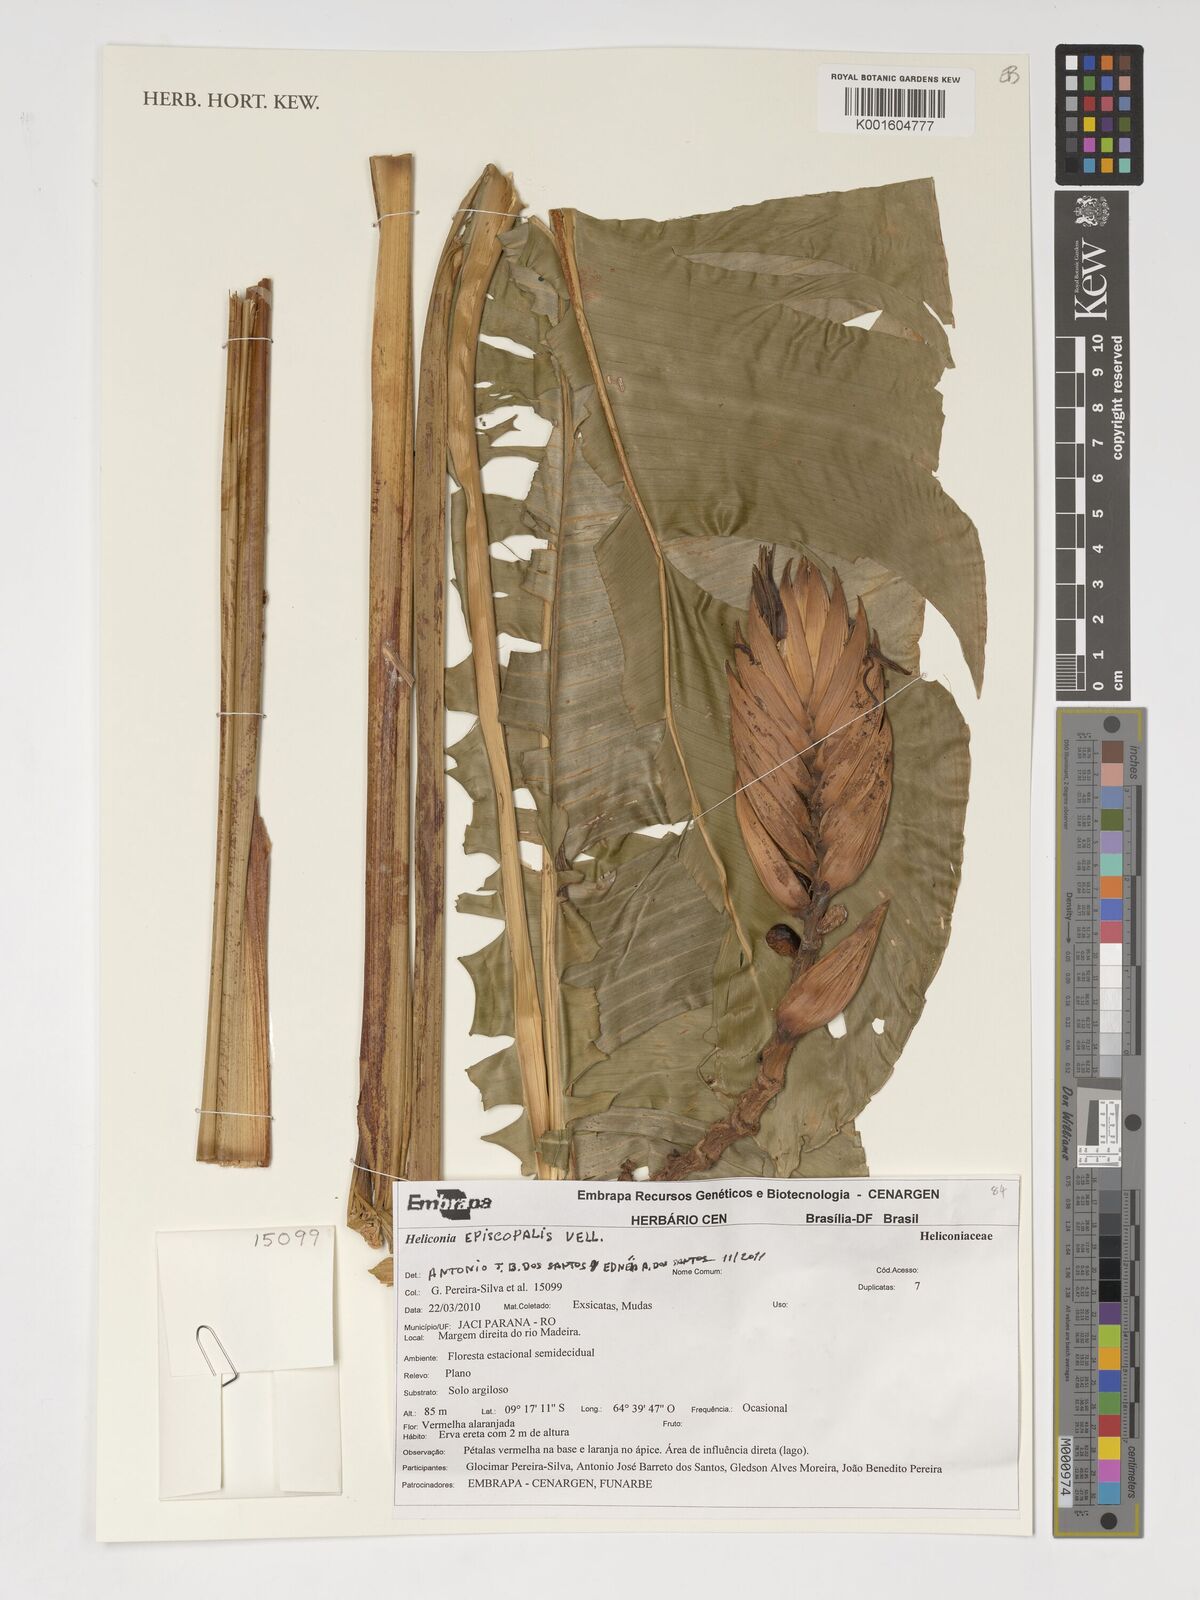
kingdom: Plantae
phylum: Tracheophyta
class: Liliopsida
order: Zingiberales
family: Heliconiaceae
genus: Heliconia
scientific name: Heliconia episcopalis
